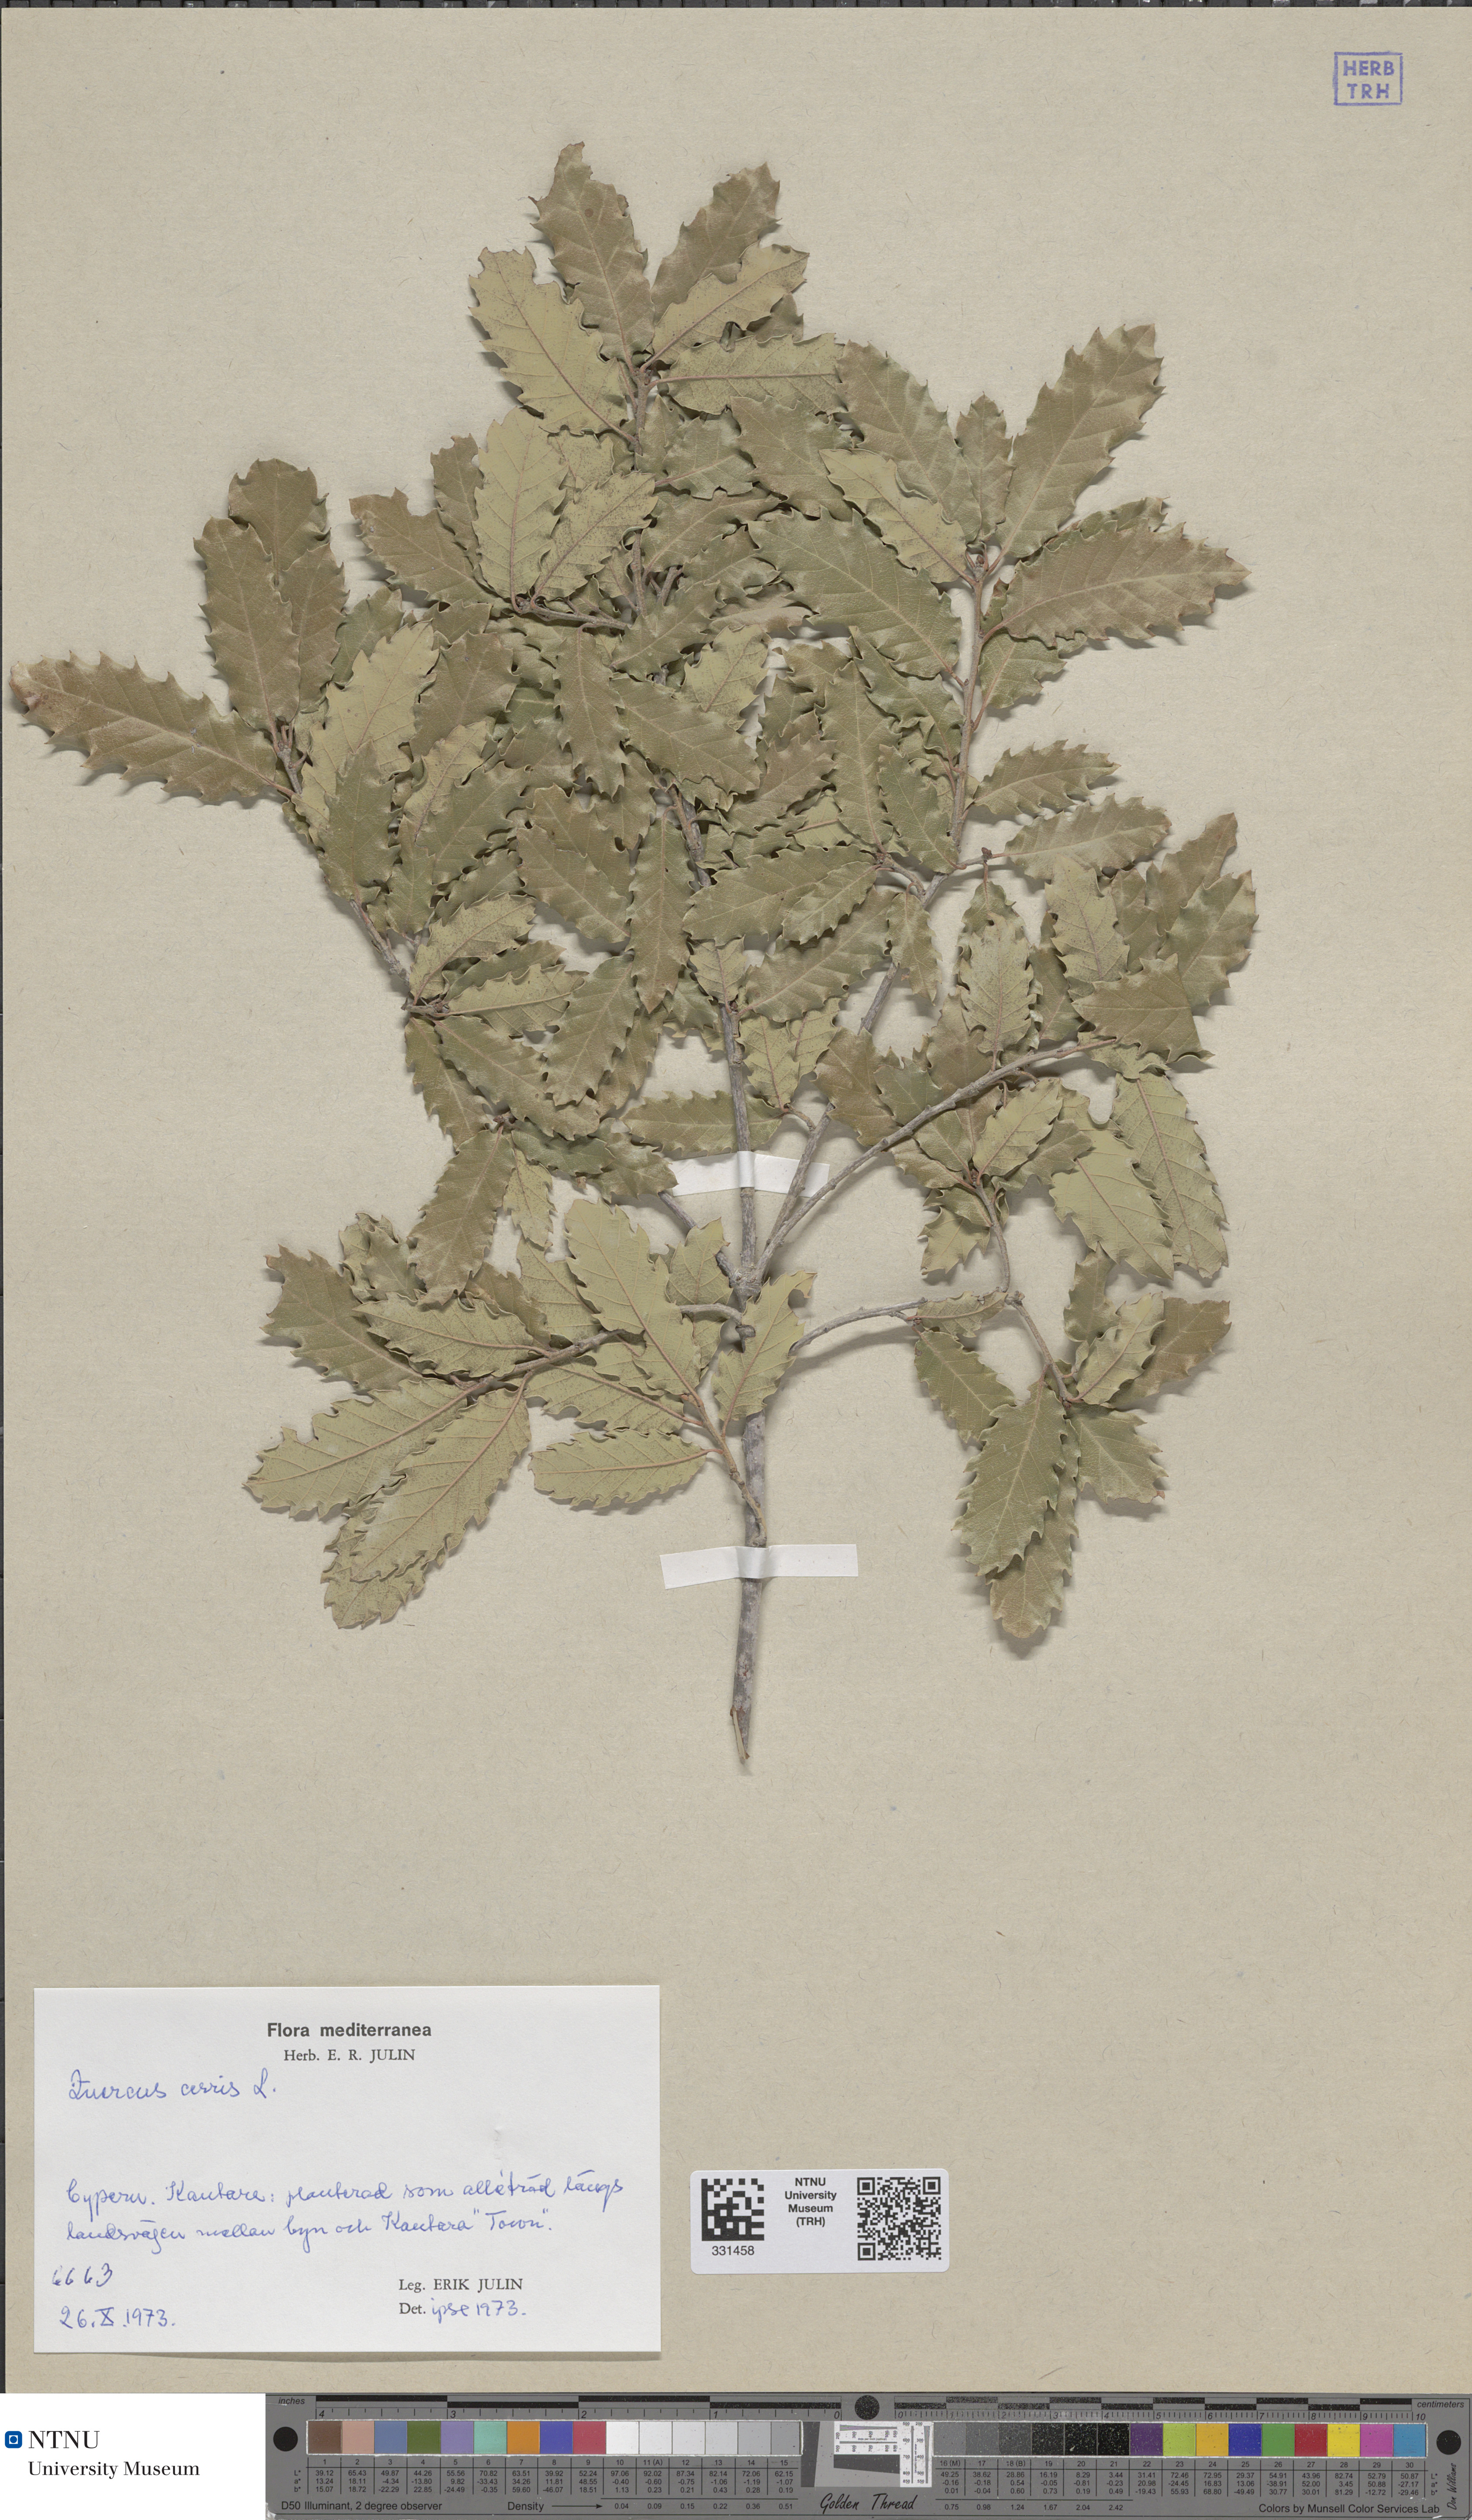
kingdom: Plantae
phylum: Tracheophyta
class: Magnoliopsida
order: Fagales
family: Fagaceae
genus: Quercus
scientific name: Quercus cerris
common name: Turkey oak
